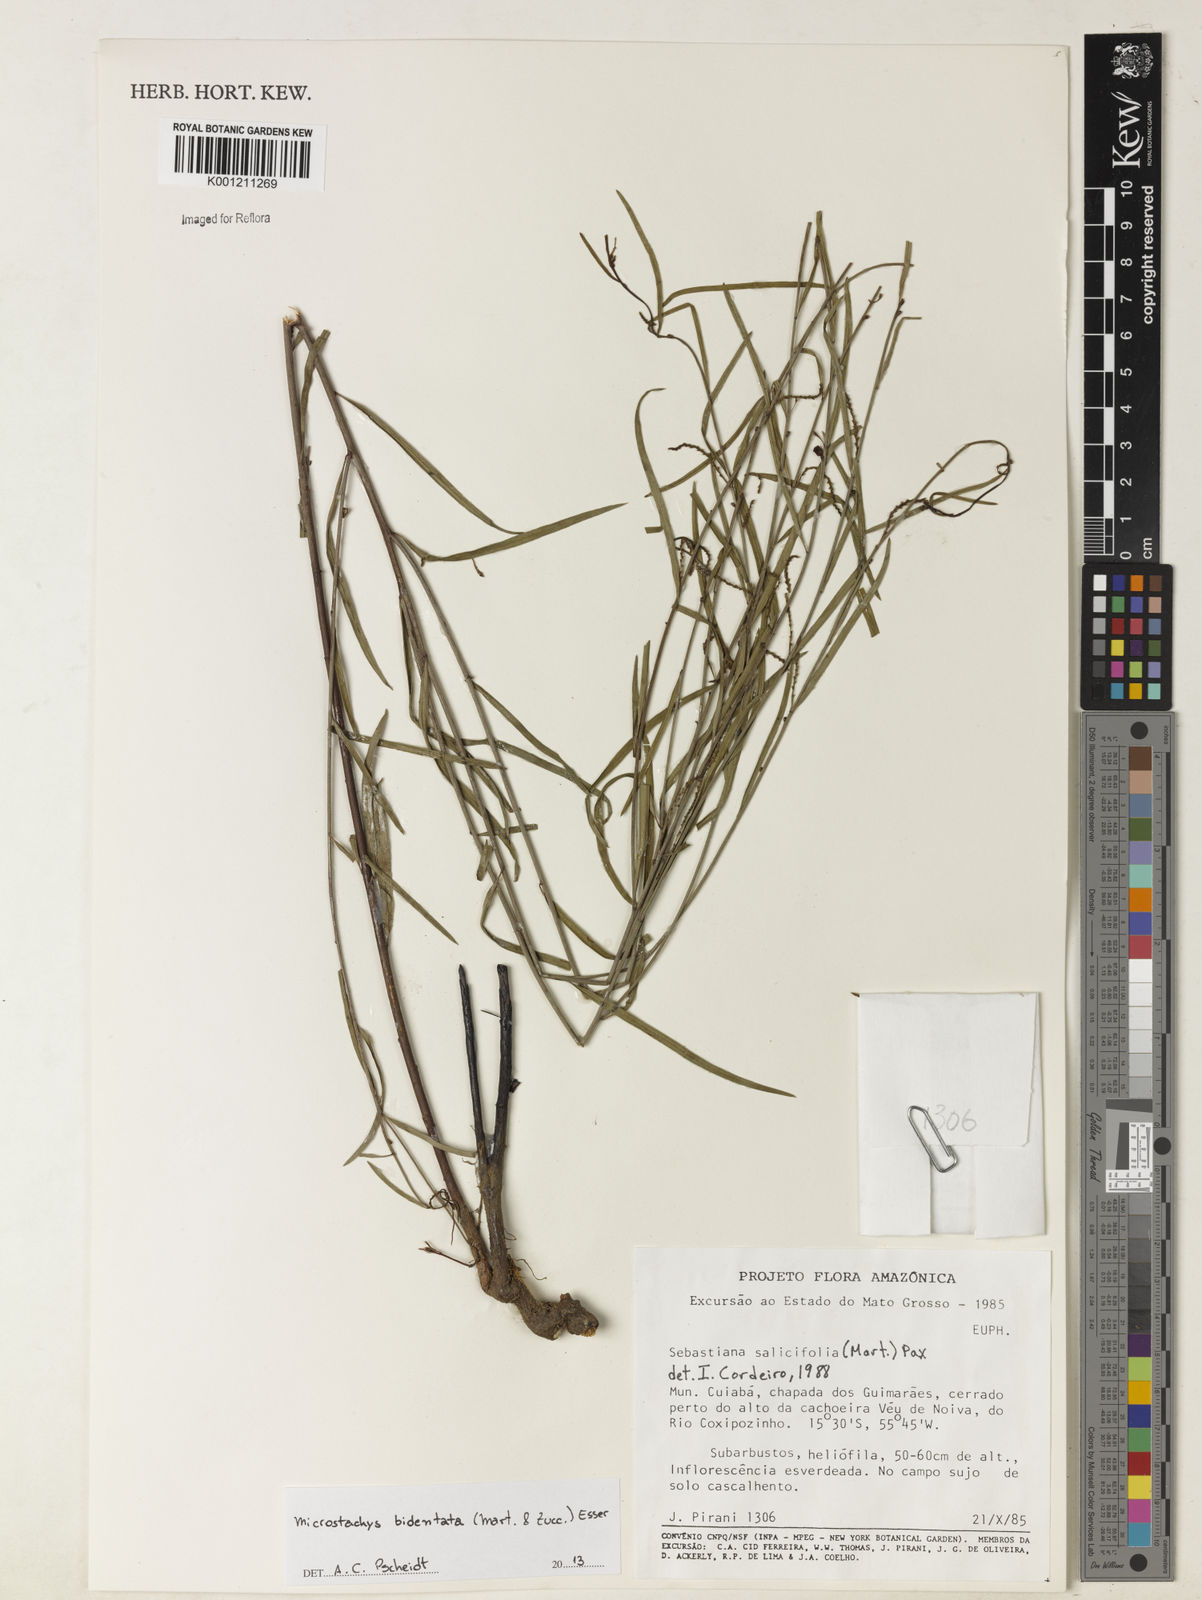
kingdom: Plantae
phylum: Tracheophyta
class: Magnoliopsida
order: Malpighiales
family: Euphorbiaceae
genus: Microstachys
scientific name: Microstachys bidentata
